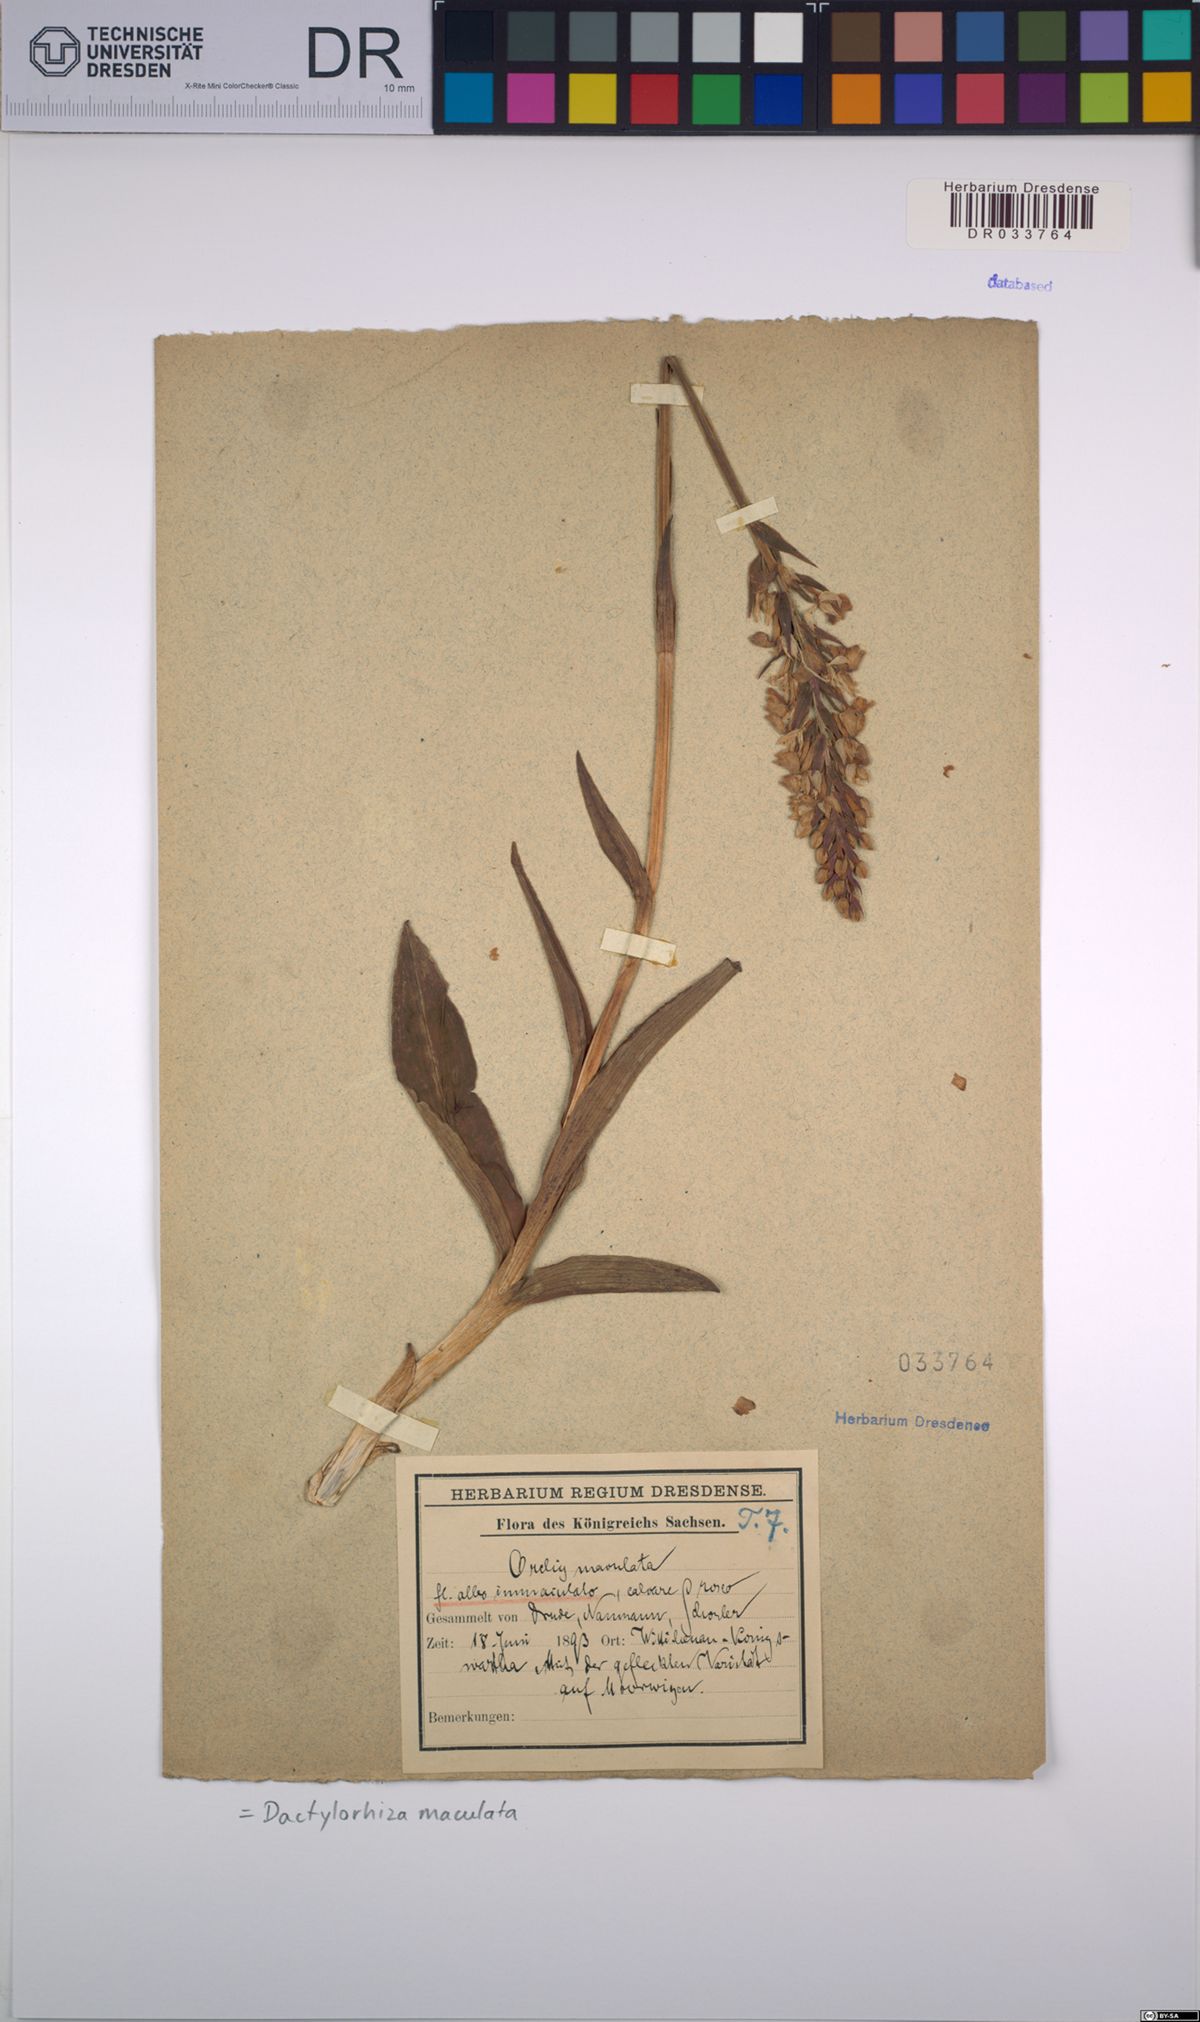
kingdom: Plantae
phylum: Tracheophyta
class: Liliopsida
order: Asparagales
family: Orchidaceae
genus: Dactylorhiza
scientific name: Dactylorhiza maculata
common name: Heath spotted-orchid
